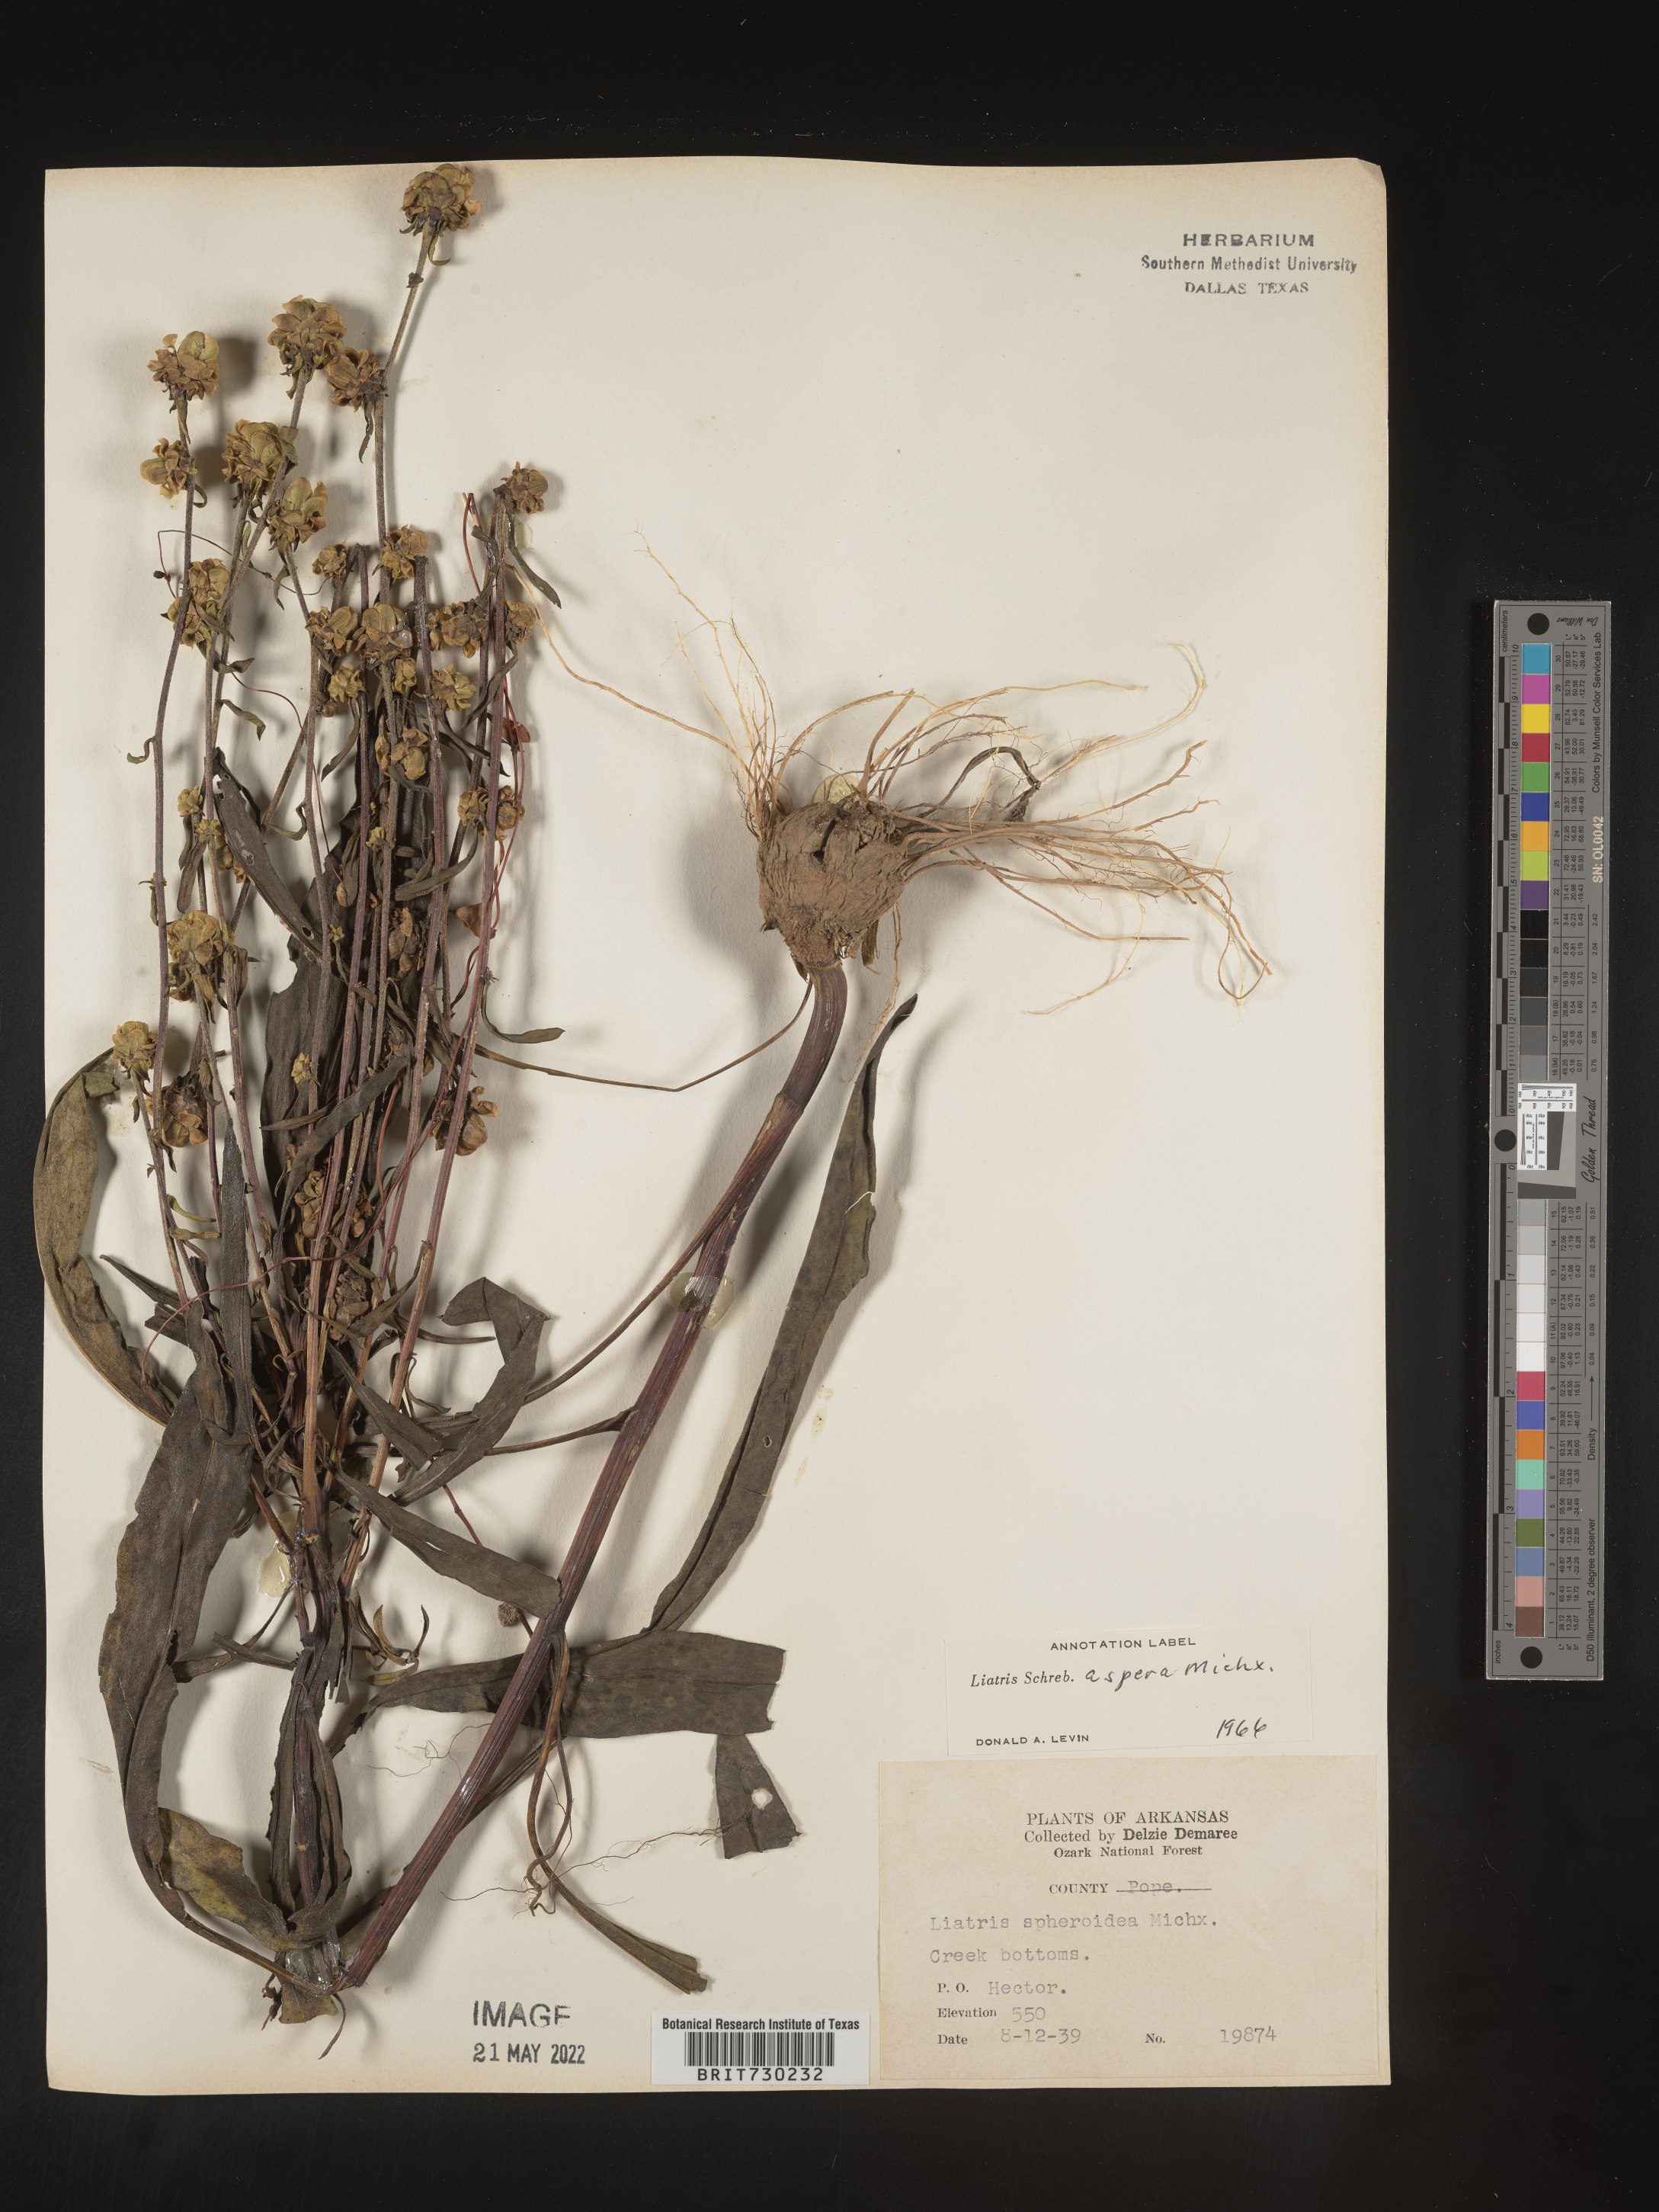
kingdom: Plantae
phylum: Tracheophyta
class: Magnoliopsida
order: Asterales
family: Asteraceae
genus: Liatris
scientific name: Liatris aspera
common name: Lacerate blazing-star
